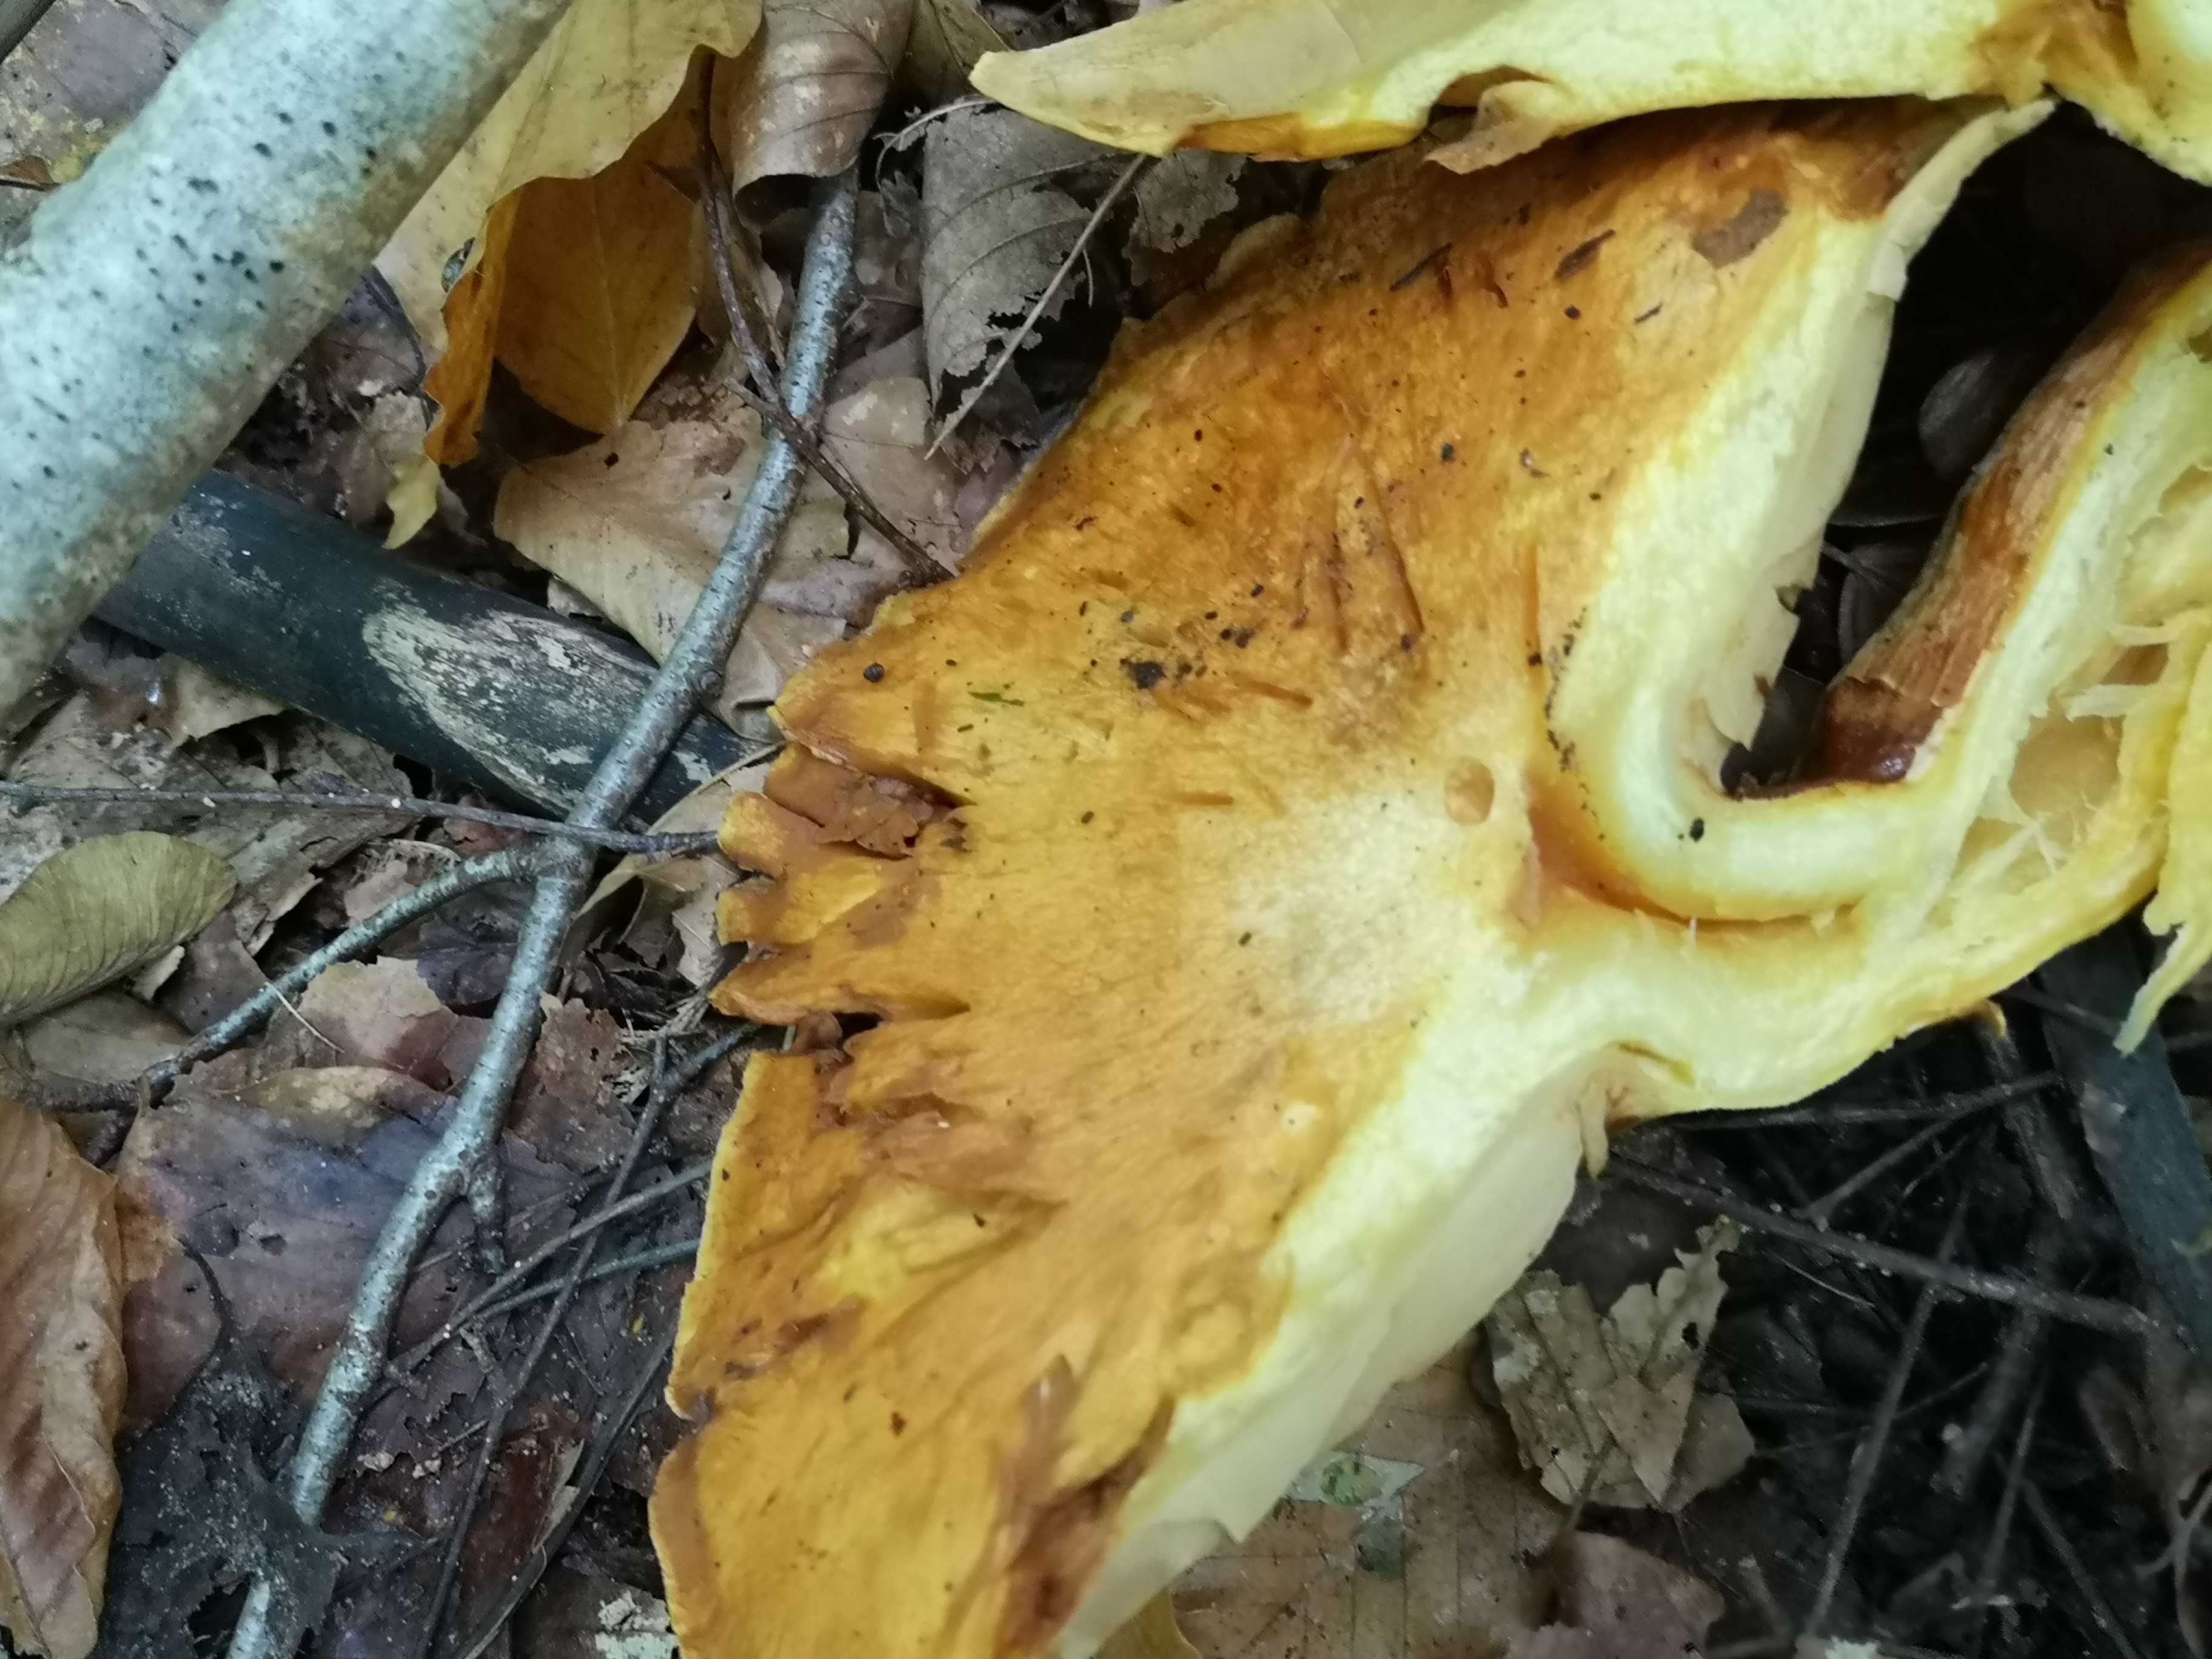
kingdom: Fungi
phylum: Basidiomycota
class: Agaricomycetes
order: Agaricales
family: Hymenogastraceae
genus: Gymnopilus
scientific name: Gymnopilus spectabilis
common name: fibret flammehat
